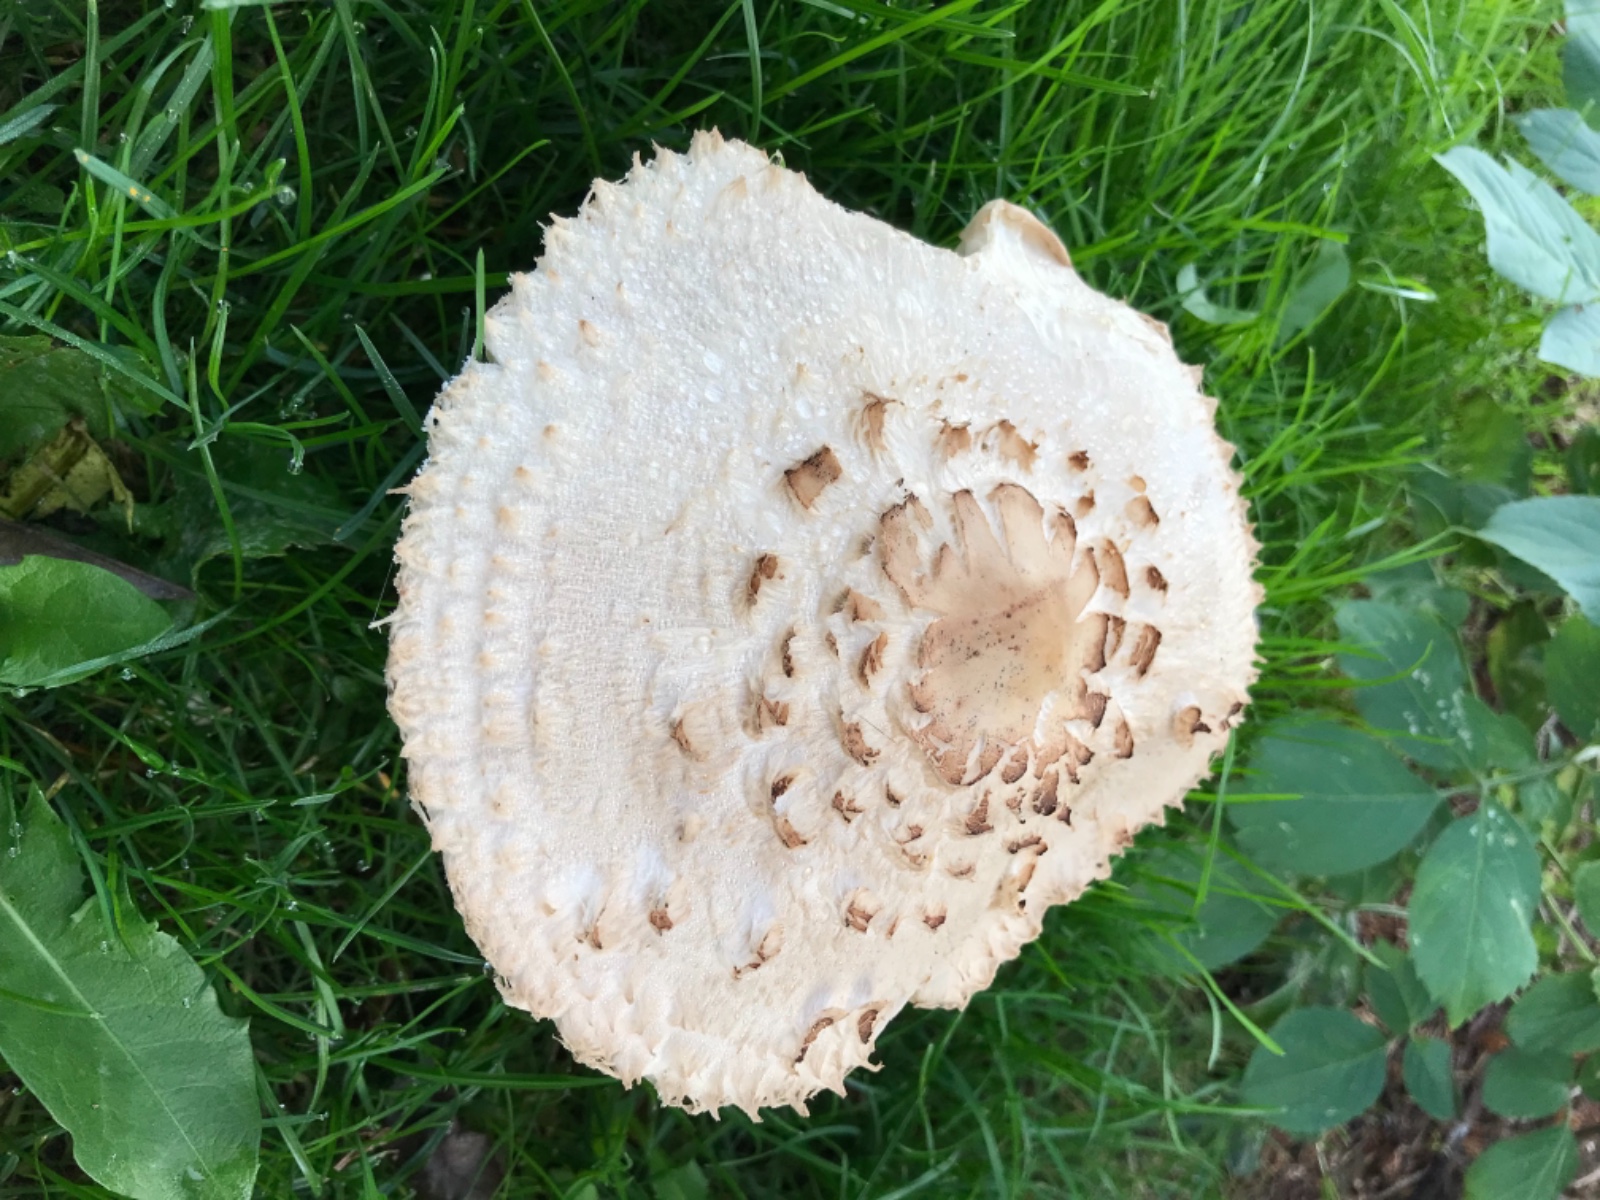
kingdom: Fungi
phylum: Basidiomycota
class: Agaricomycetes
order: Agaricales
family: Agaricaceae
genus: Chlorophyllum
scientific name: Chlorophyllum brunneum
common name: giftig rabarberhat
